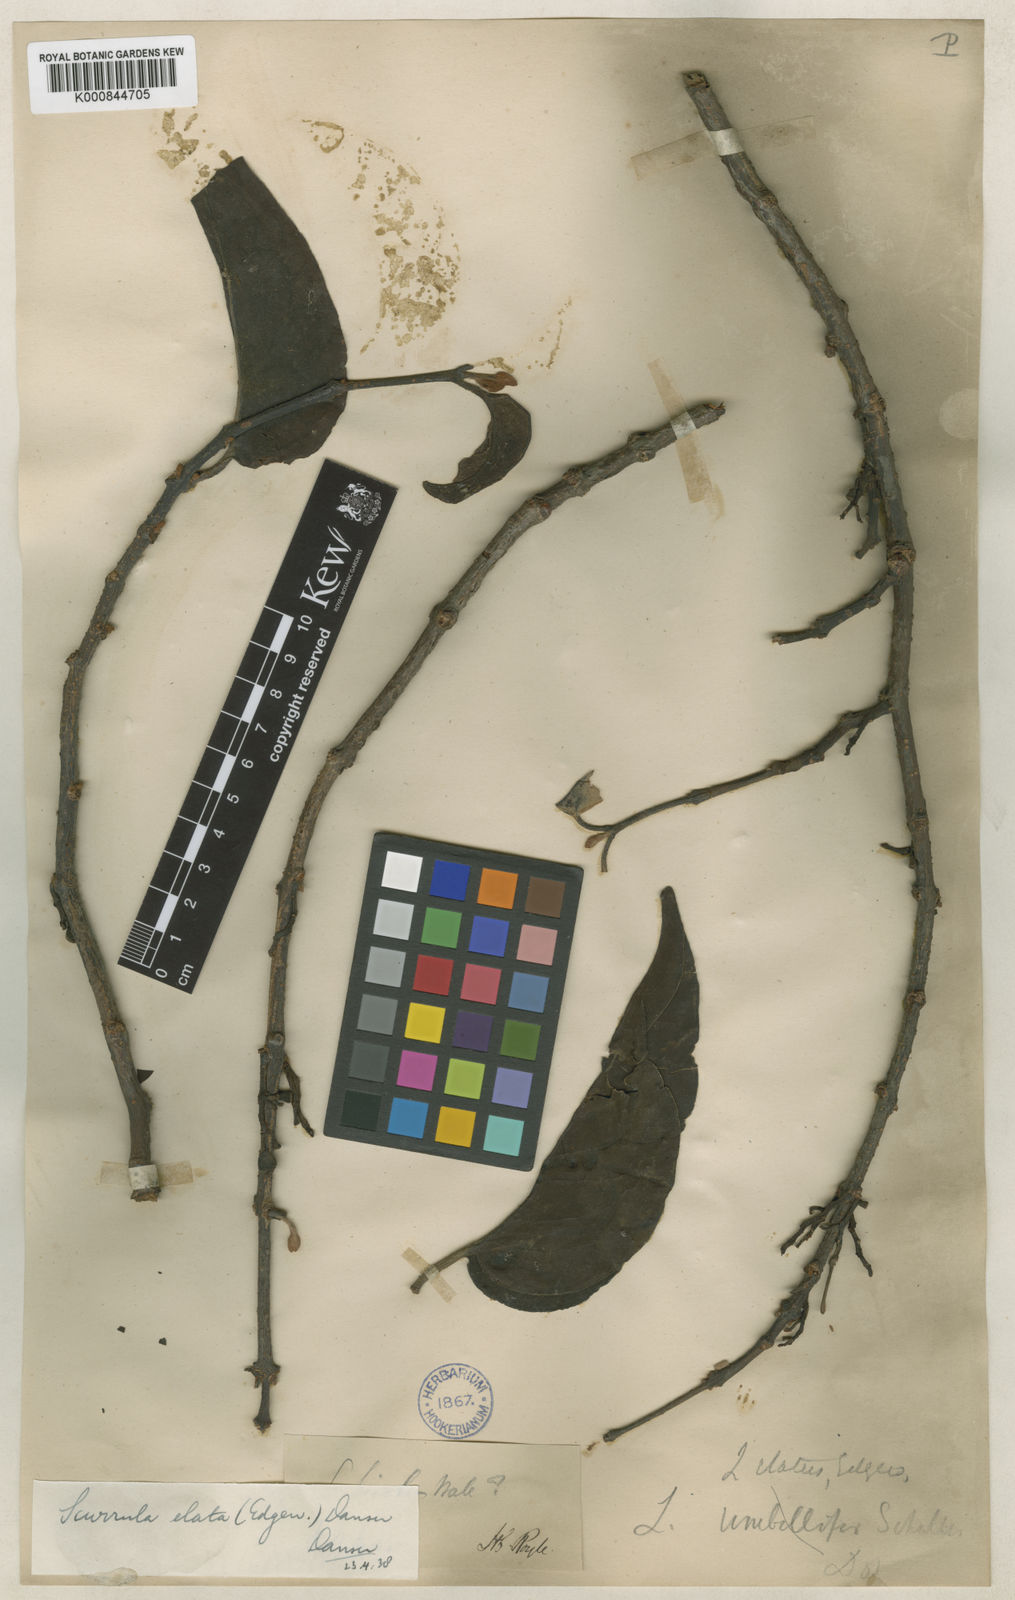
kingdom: Plantae
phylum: Tracheophyta
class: Magnoliopsida
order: Santalales
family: Loranthaceae
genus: Scurrula
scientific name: Scurrula elata
